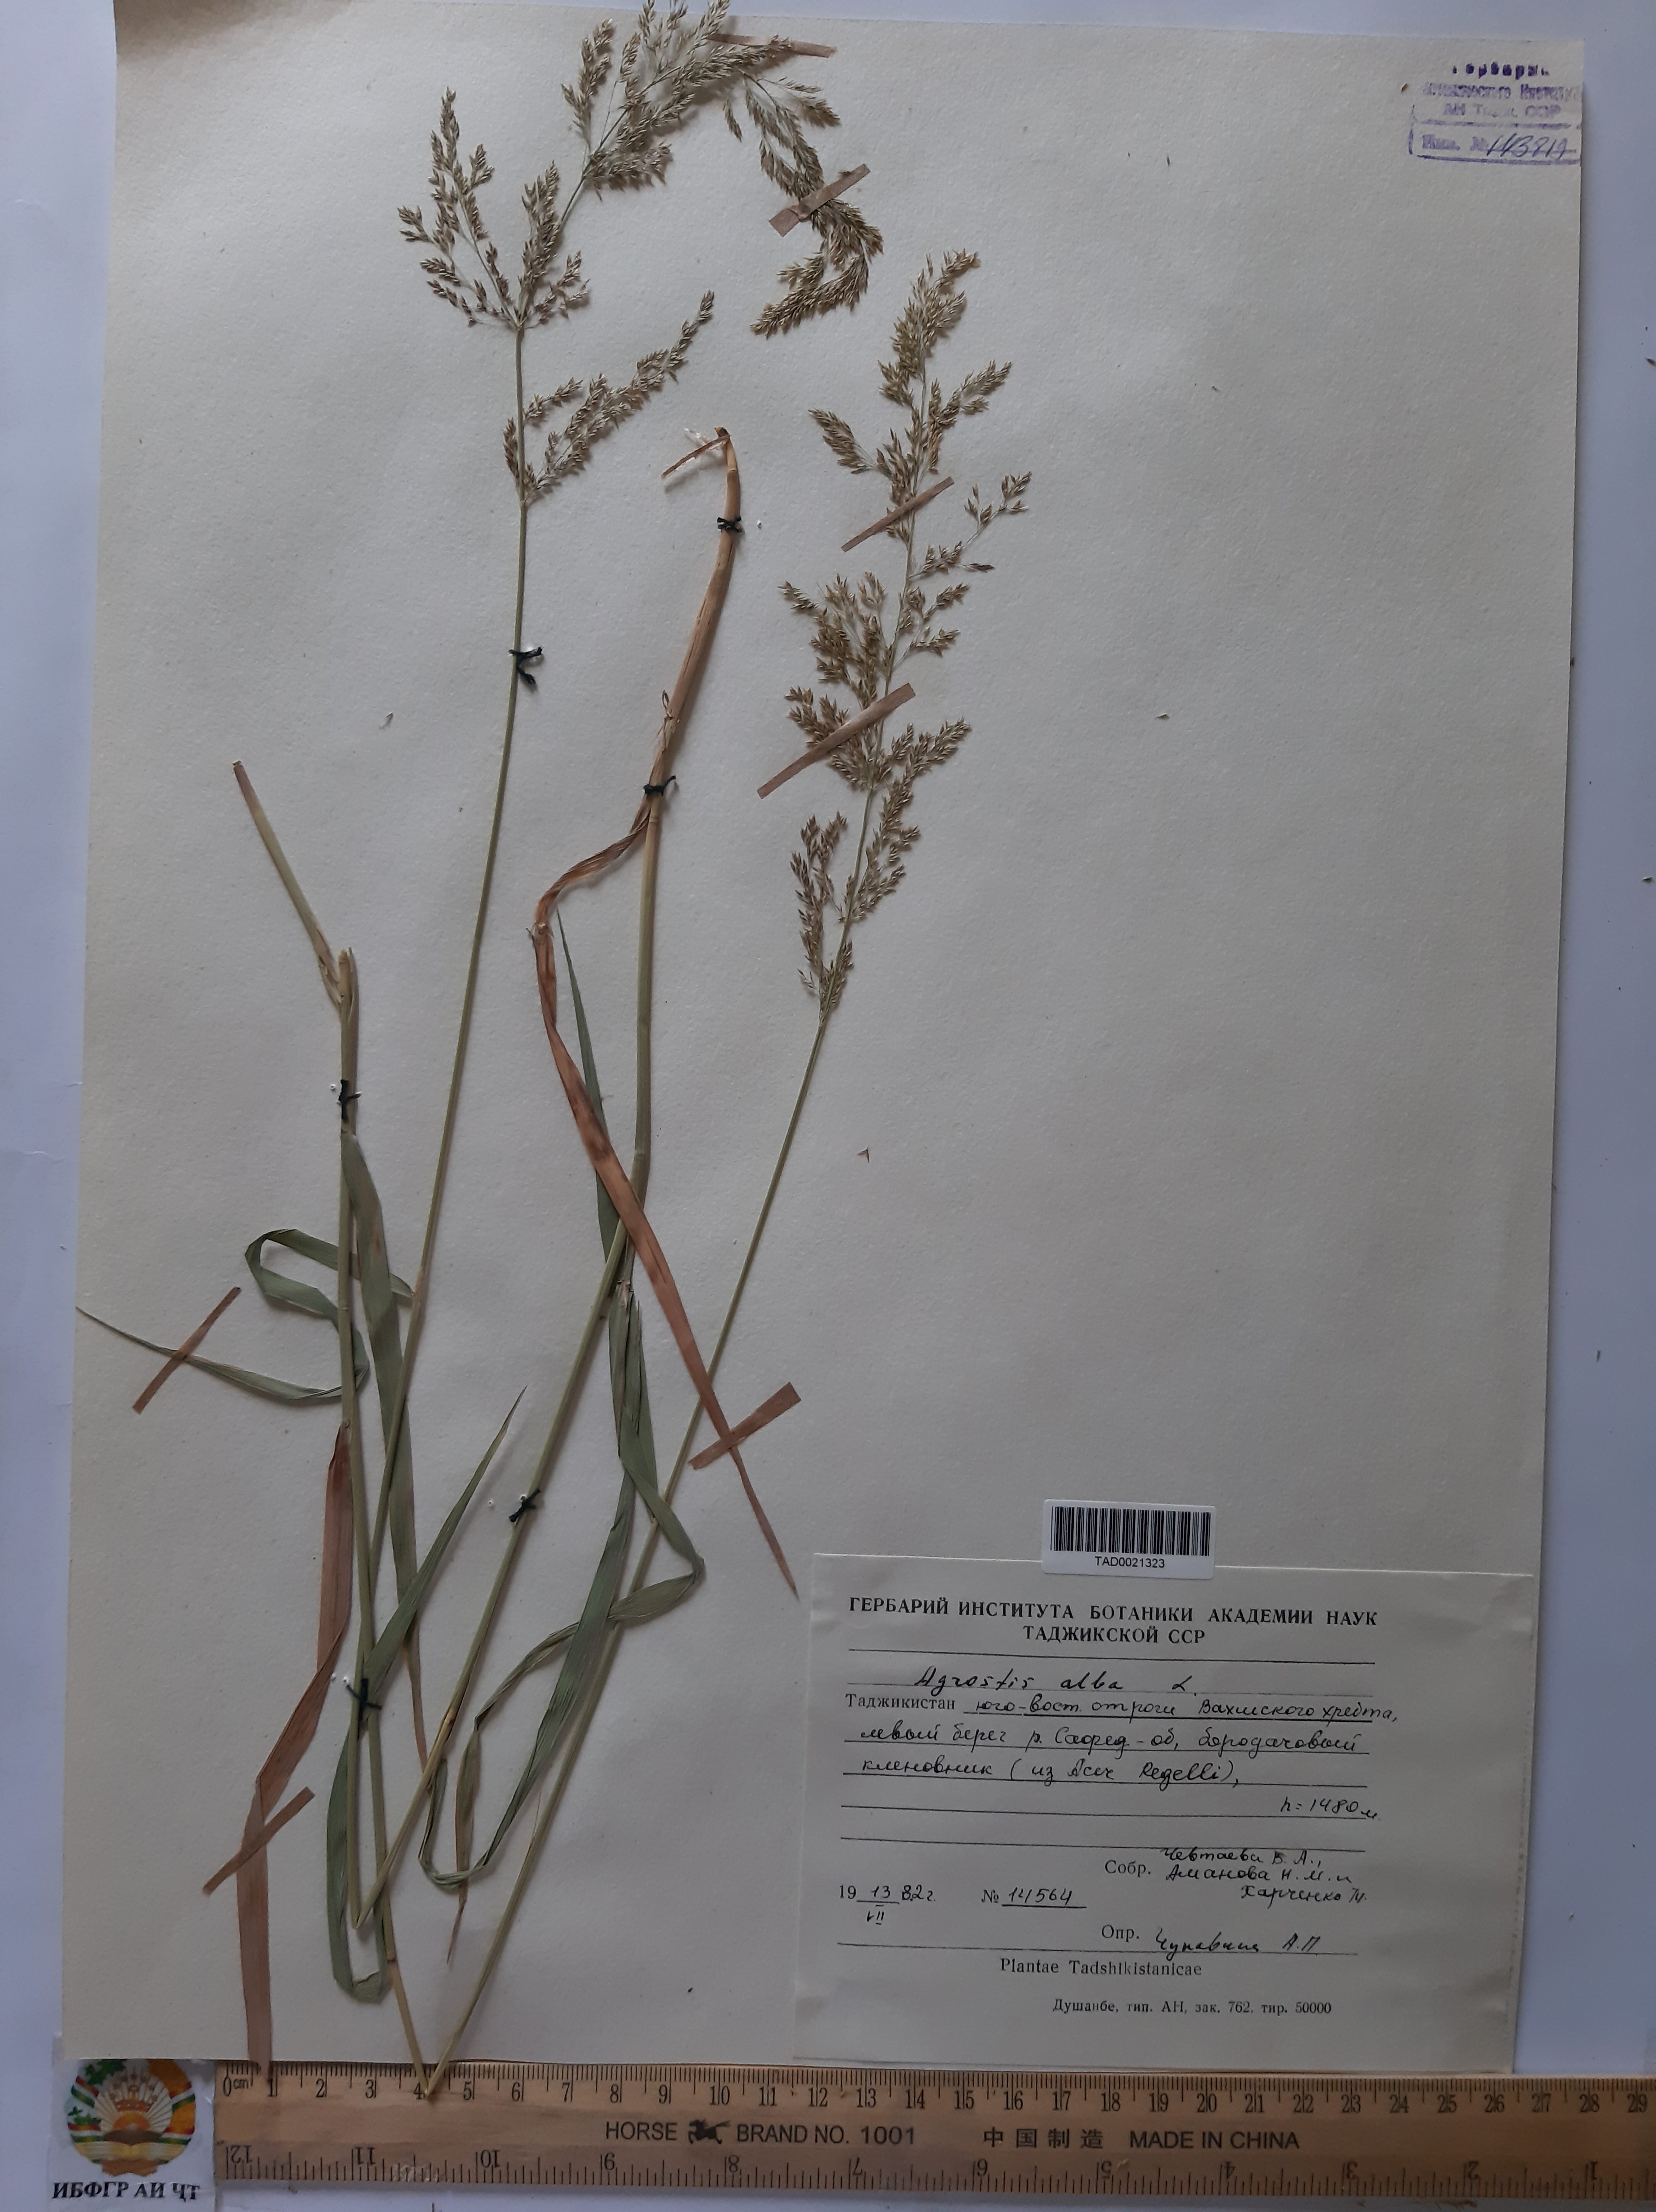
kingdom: Plantae
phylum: Tracheophyta
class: Liliopsida
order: Poales
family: Poaceae
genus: Poa
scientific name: Poa nemoralis
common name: Wood bluegrass
